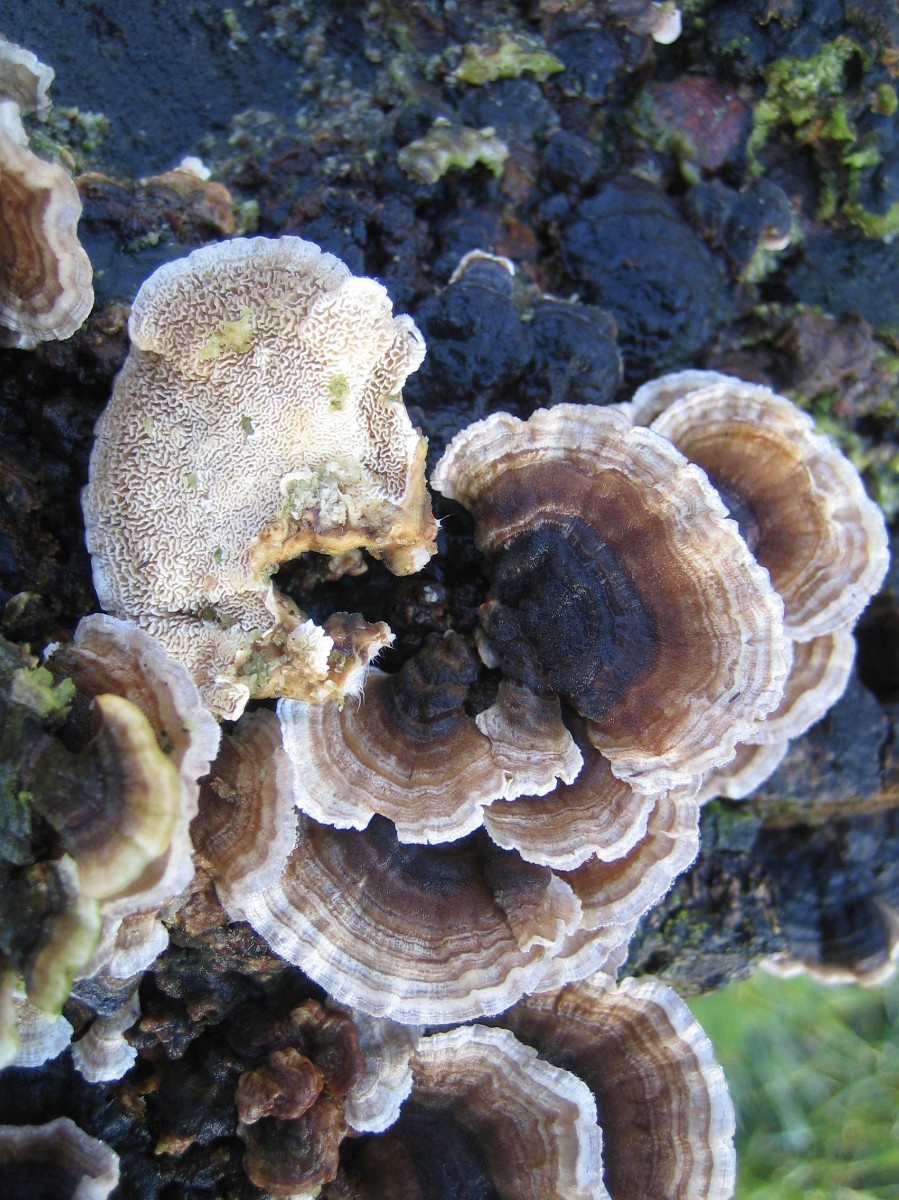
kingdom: Fungi
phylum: Basidiomycota
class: Agaricomycetes
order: Polyporales
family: Polyporaceae
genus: Trametes
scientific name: Trametes versicolor
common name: broget læderporesvamp
